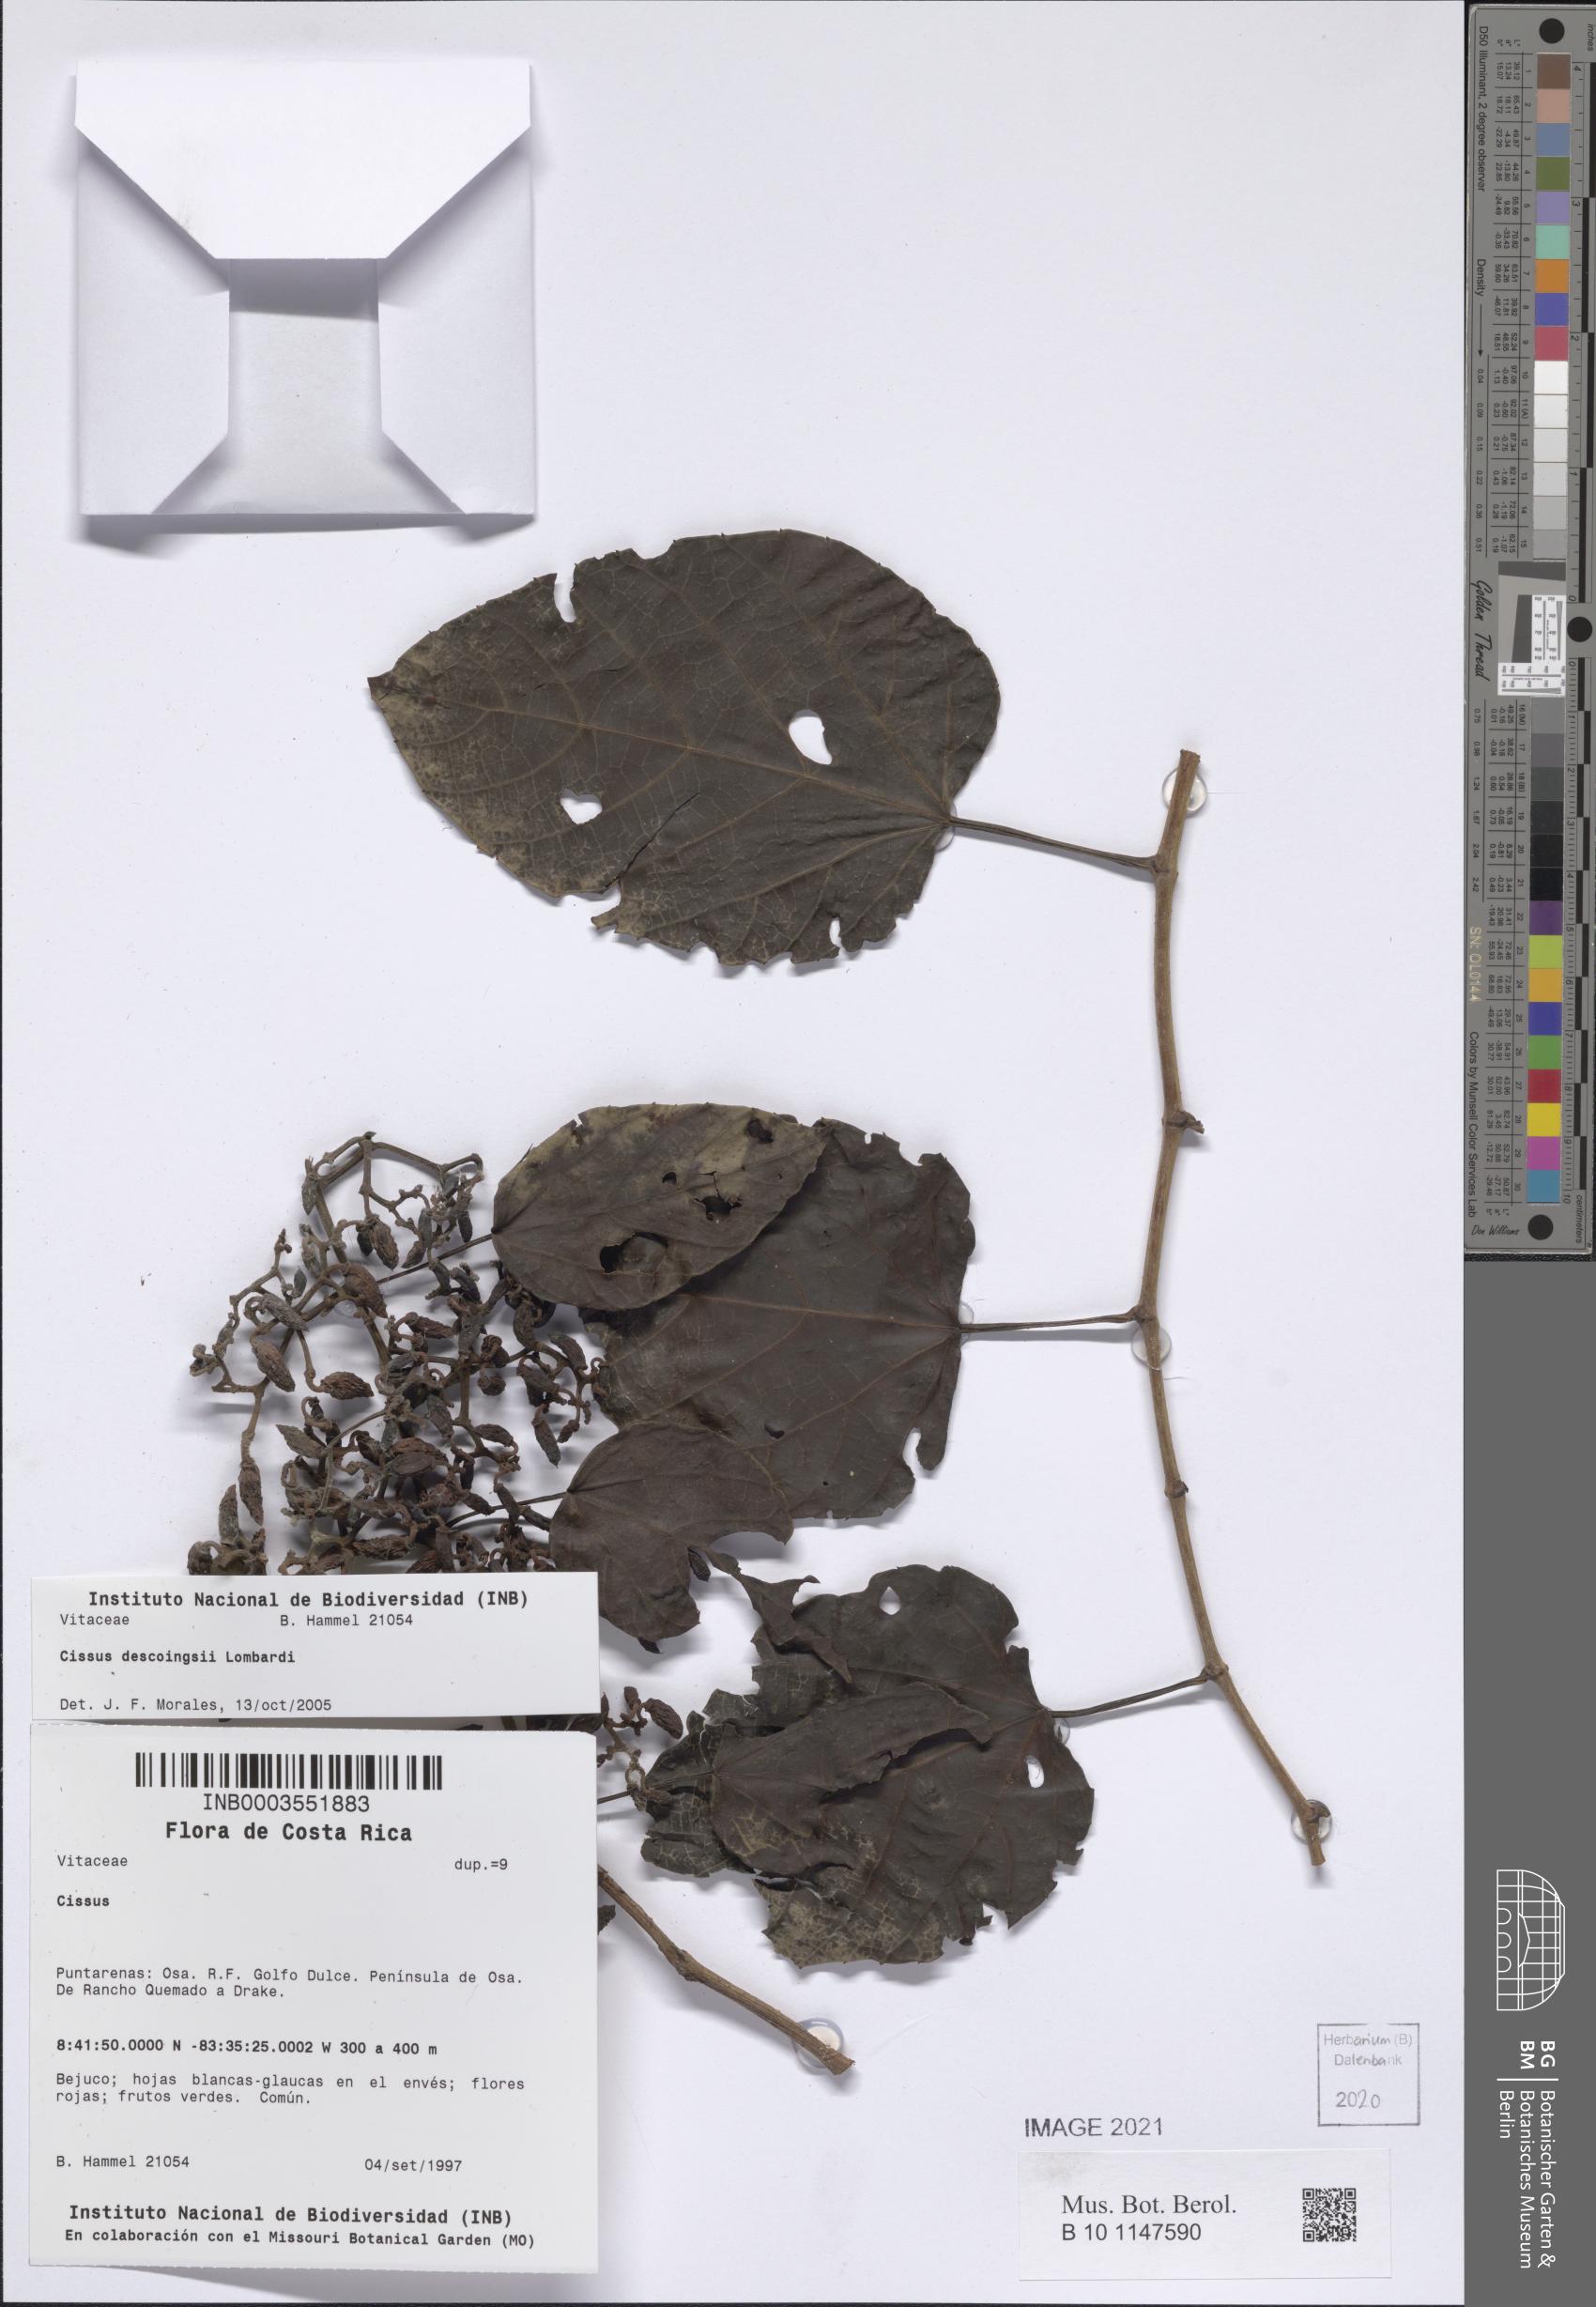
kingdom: Plantae
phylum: Tracheophyta
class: Magnoliopsida
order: Vitales
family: Vitaceae
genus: Cissus
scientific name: Cissus descoingsii
